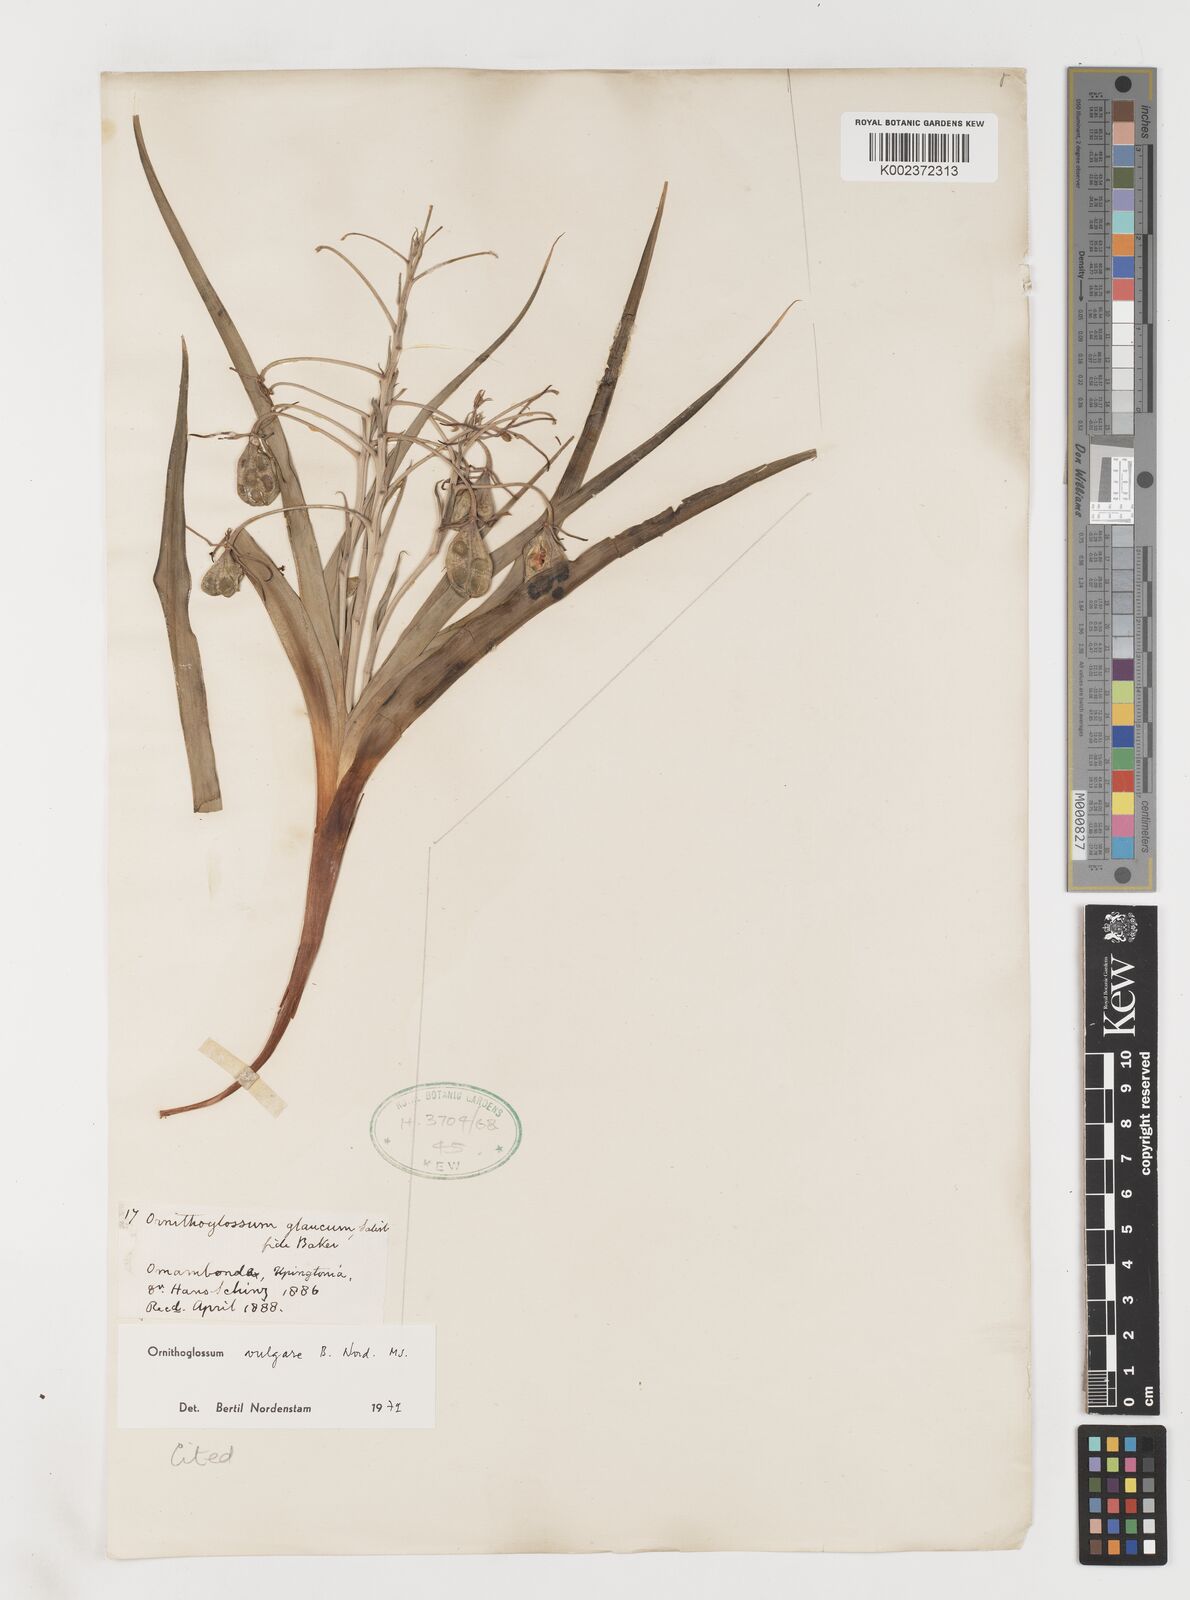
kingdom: Plantae
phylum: Tracheophyta
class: Liliopsida
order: Liliales
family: Colchicaceae
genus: Ornithoglossum
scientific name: Ornithoglossum vulgare
